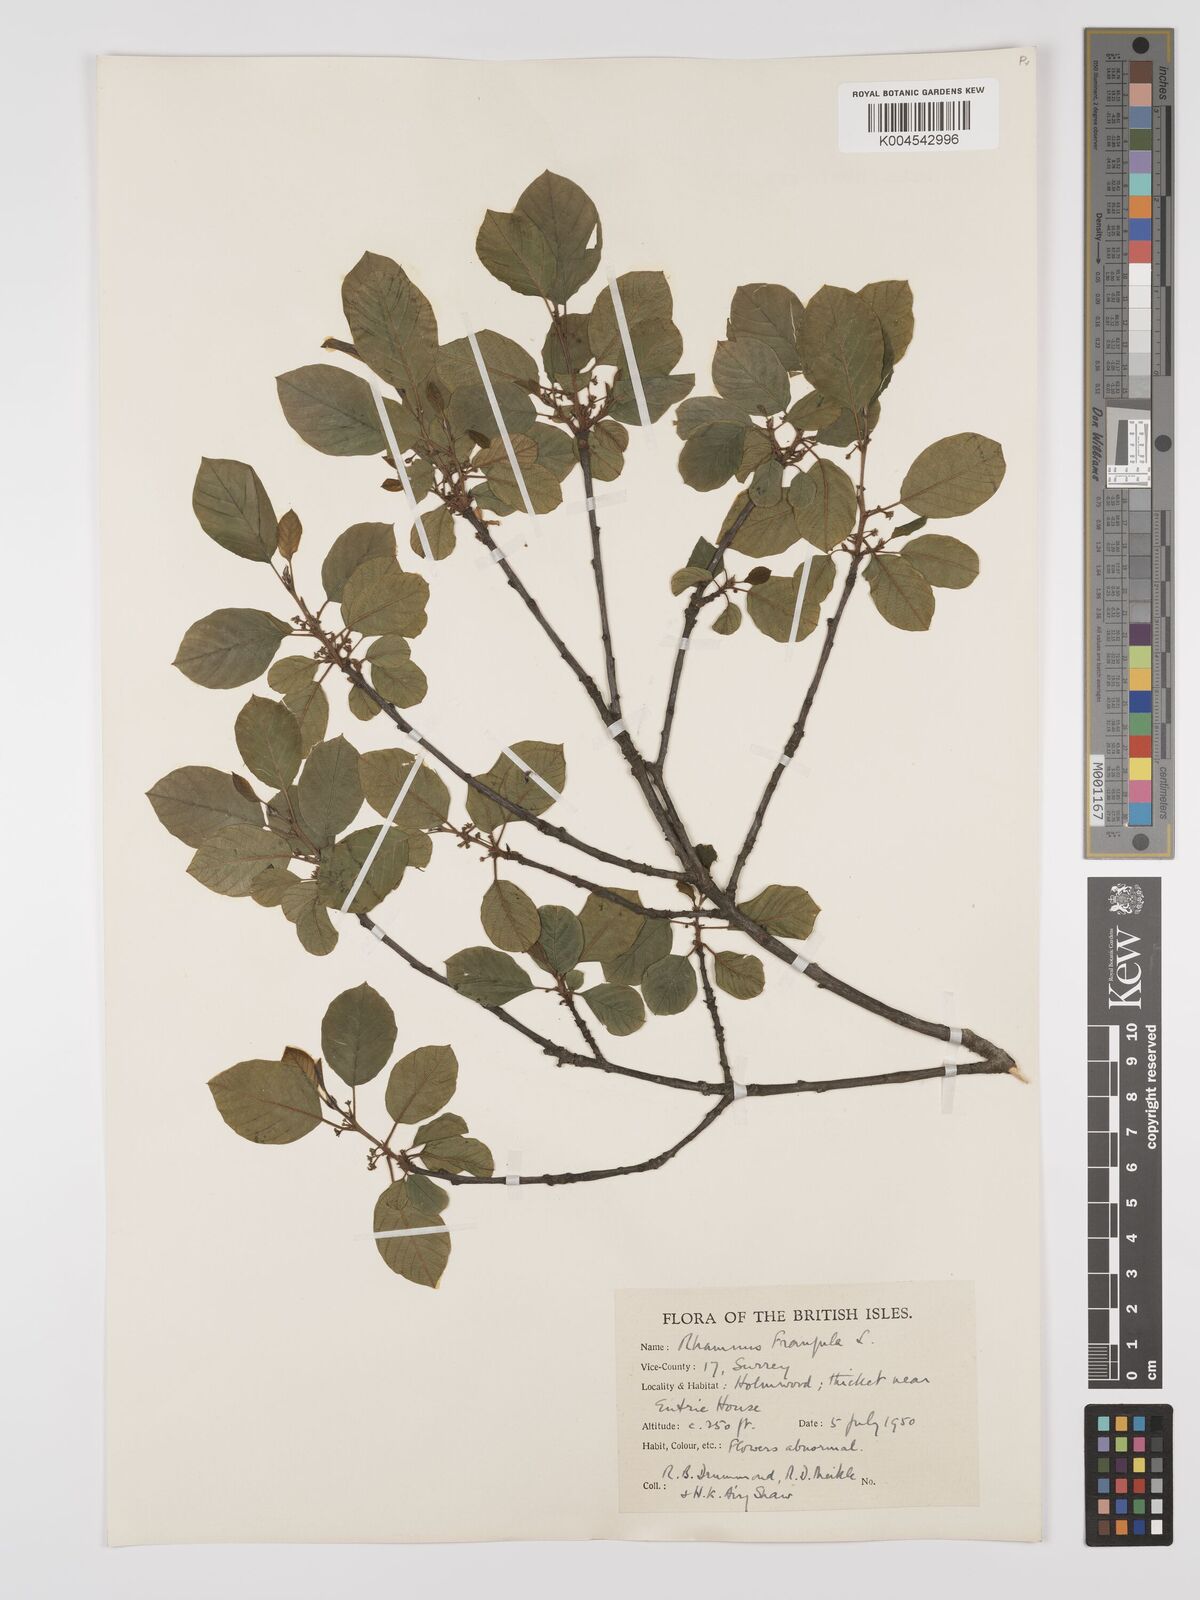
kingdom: Plantae
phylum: Tracheophyta
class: Magnoliopsida
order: Rosales
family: Rhamnaceae
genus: Frangula
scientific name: Frangula alnus
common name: Alder buckthorn
